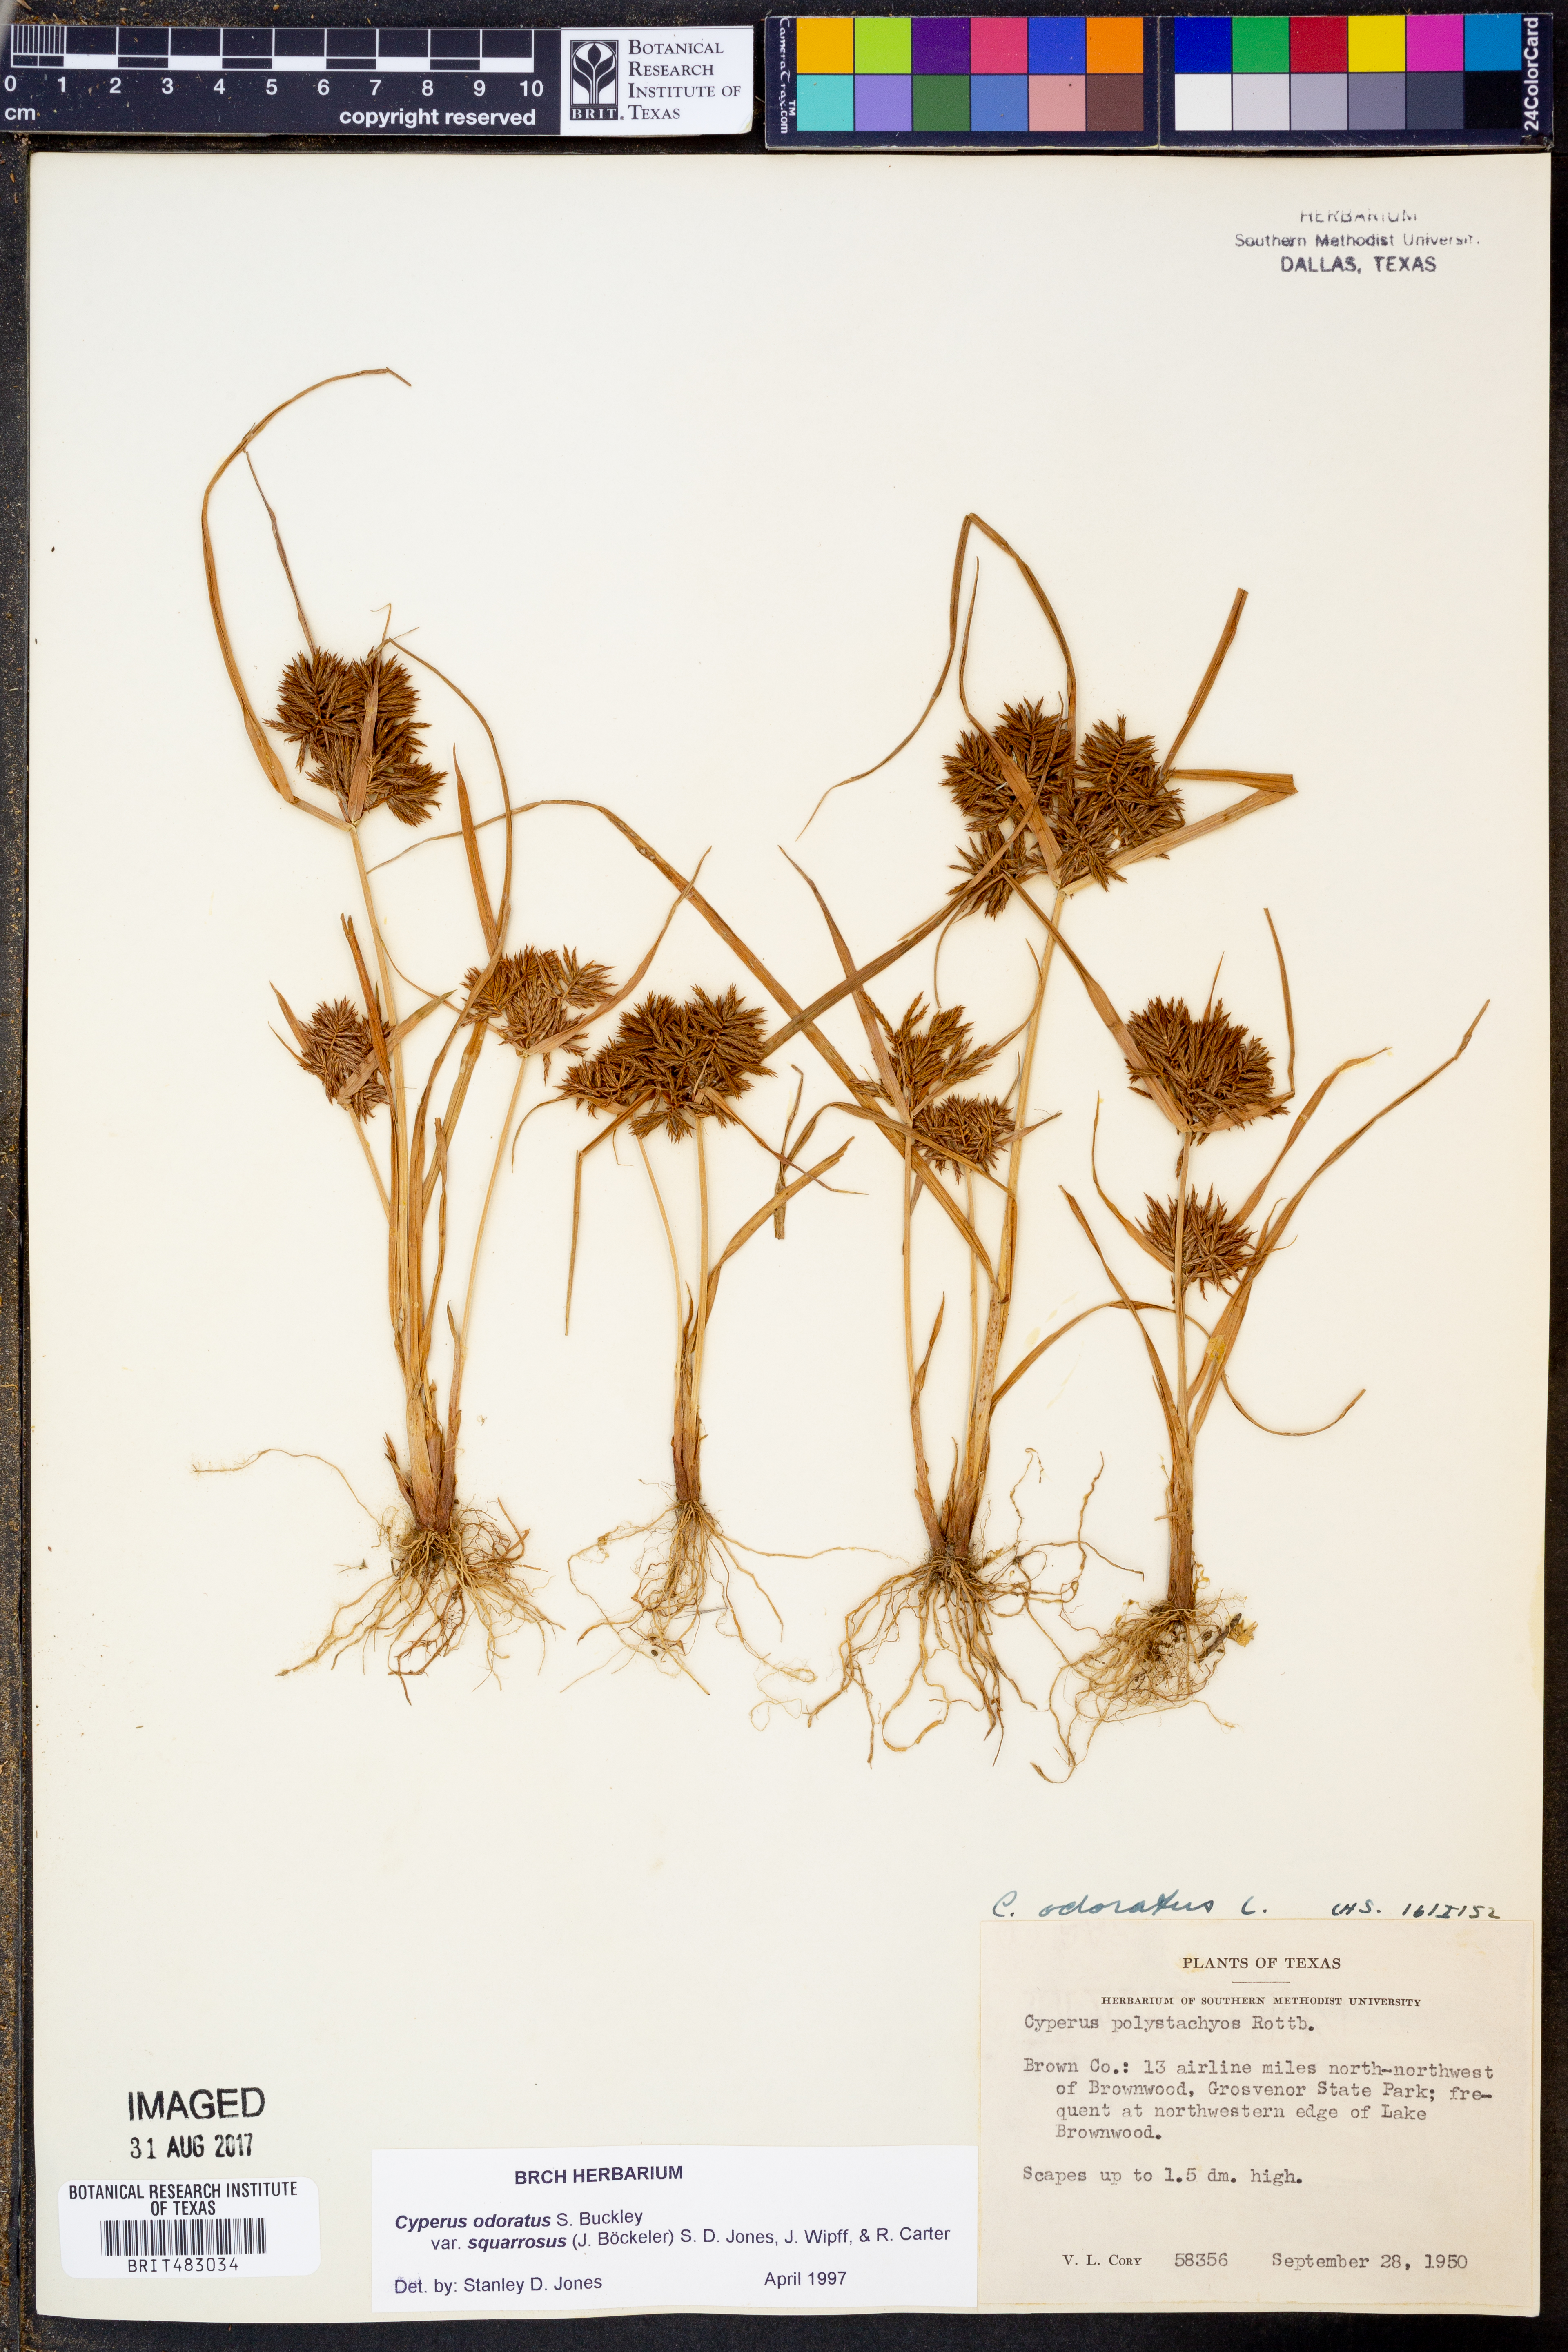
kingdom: Plantae
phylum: Tracheophyta
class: Liliopsida
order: Poales
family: Cyperaceae
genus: Cyperus
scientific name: Cyperus odoratus
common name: Fragrant flatsedge
